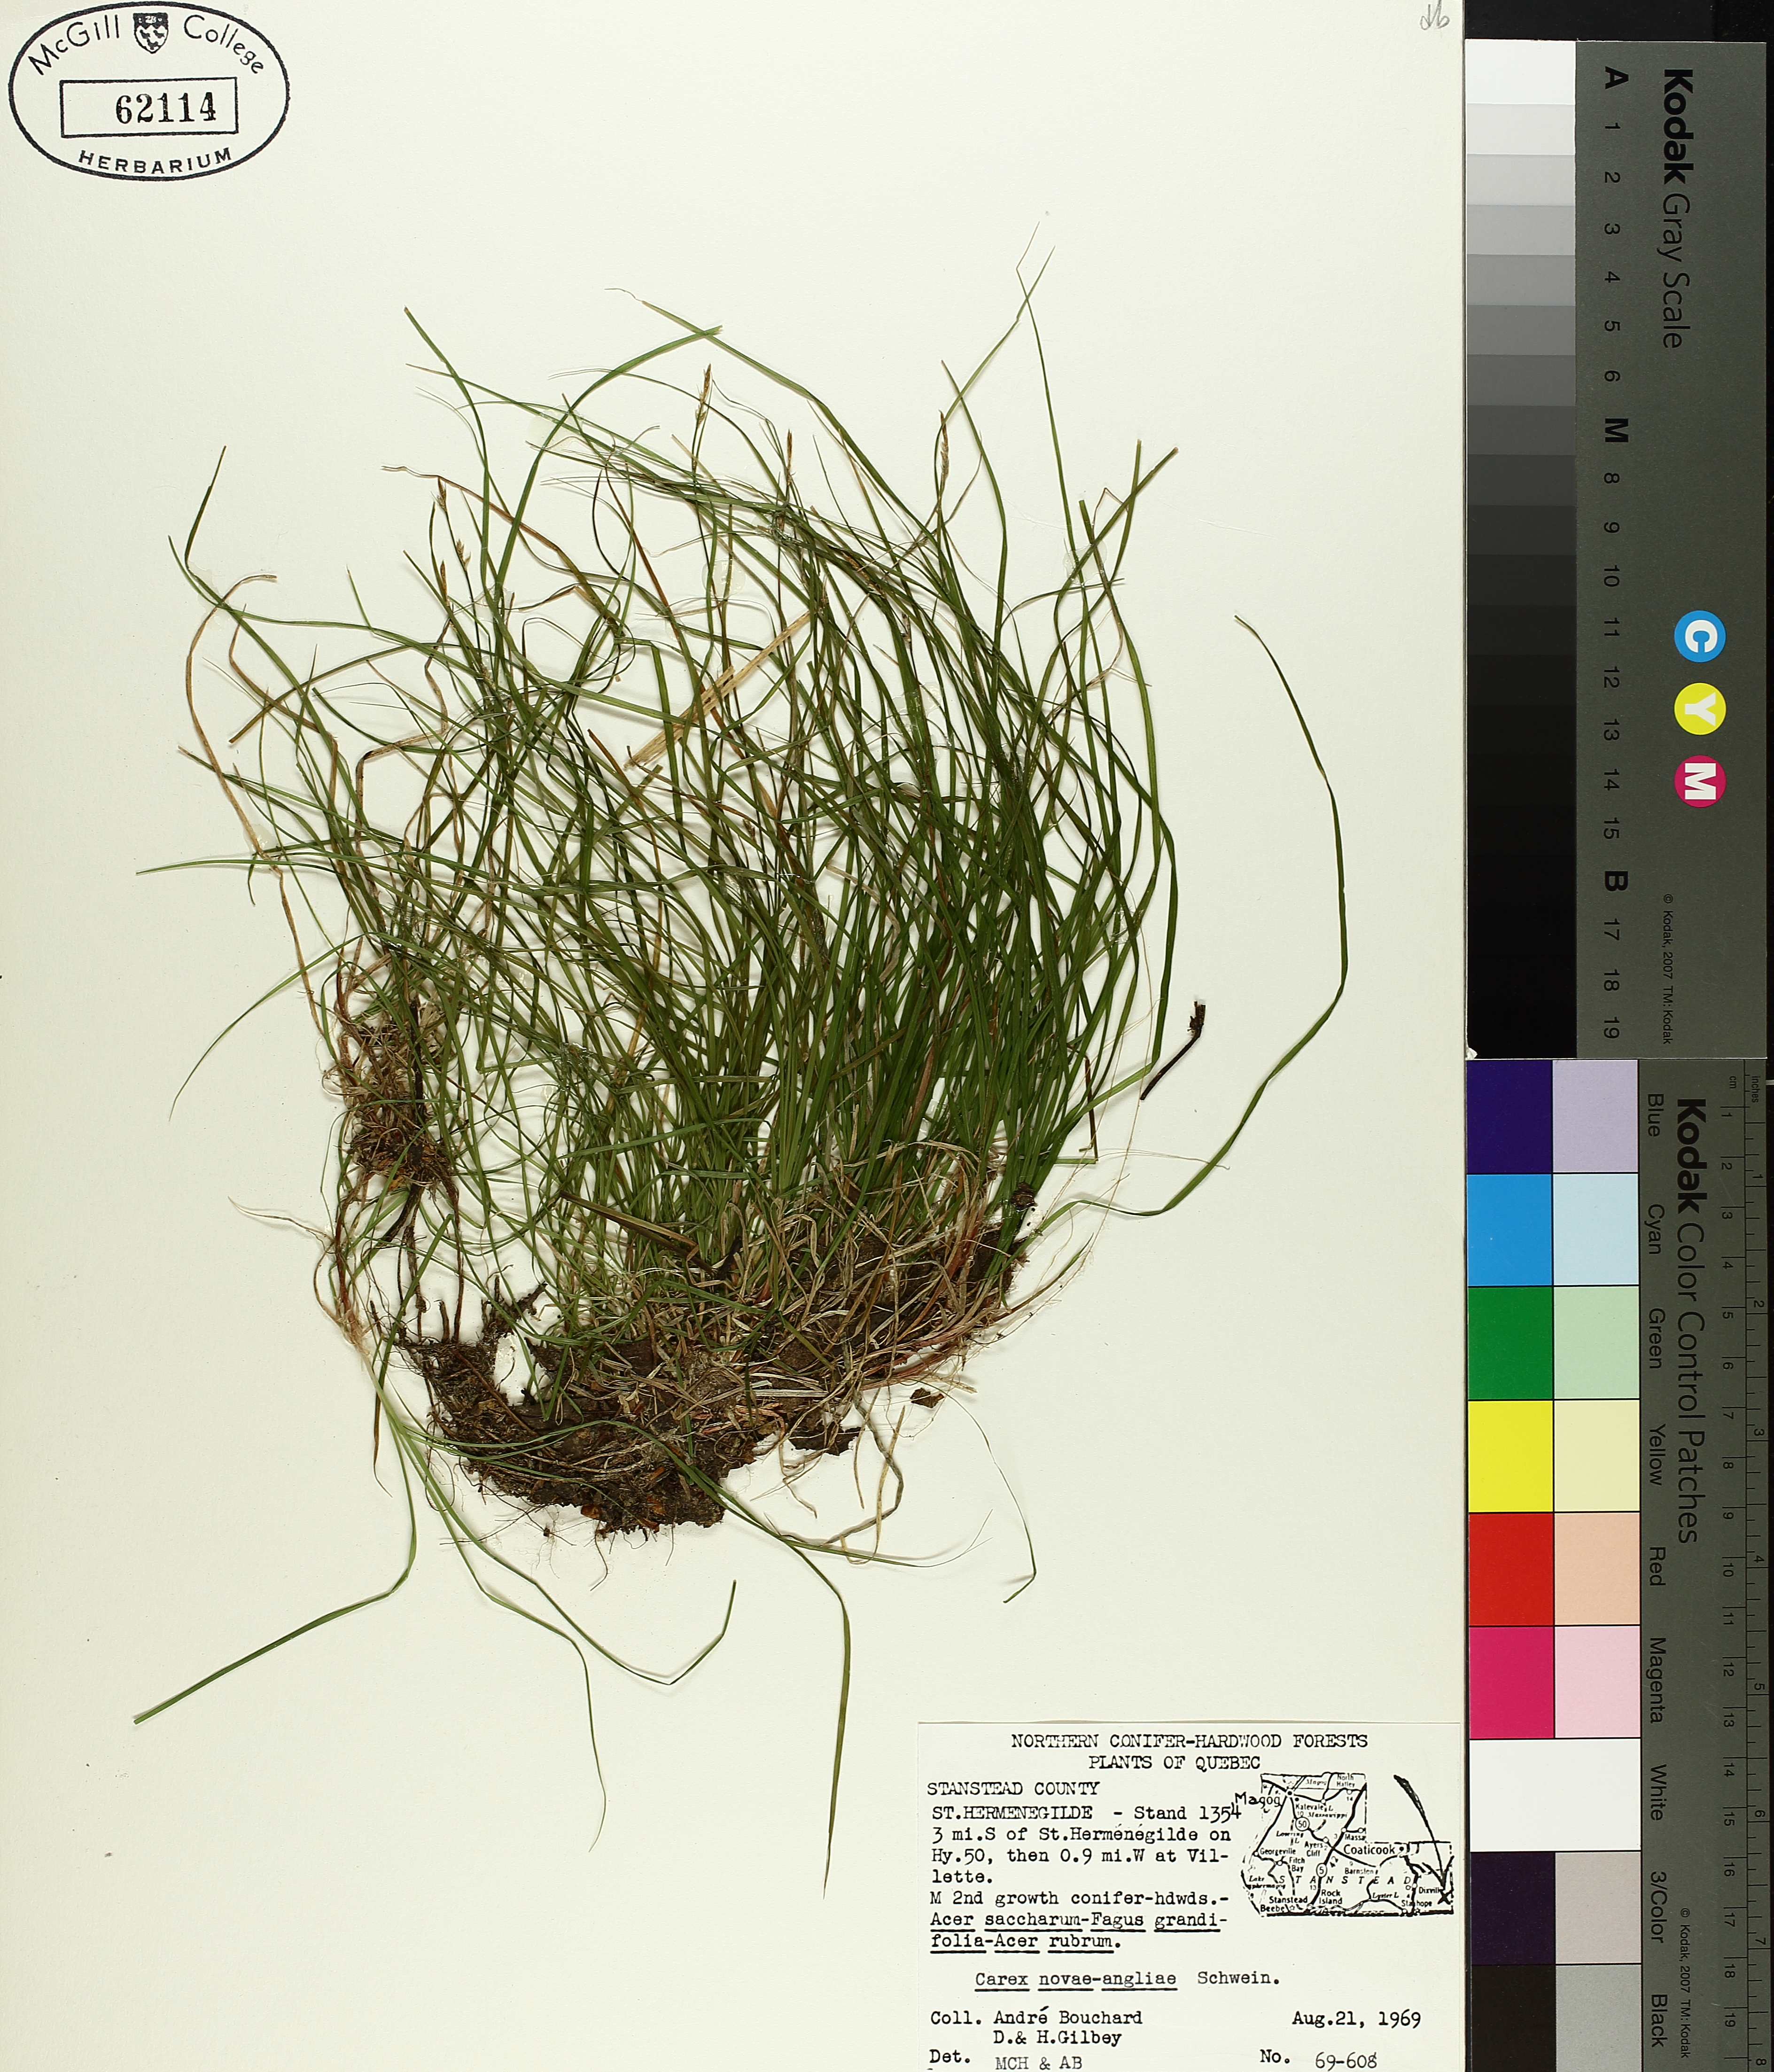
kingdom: Plantae
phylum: Tracheophyta
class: Liliopsida
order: Poales
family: Cyperaceae
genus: Carex
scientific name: Carex novae-angliae
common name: New england sedge
